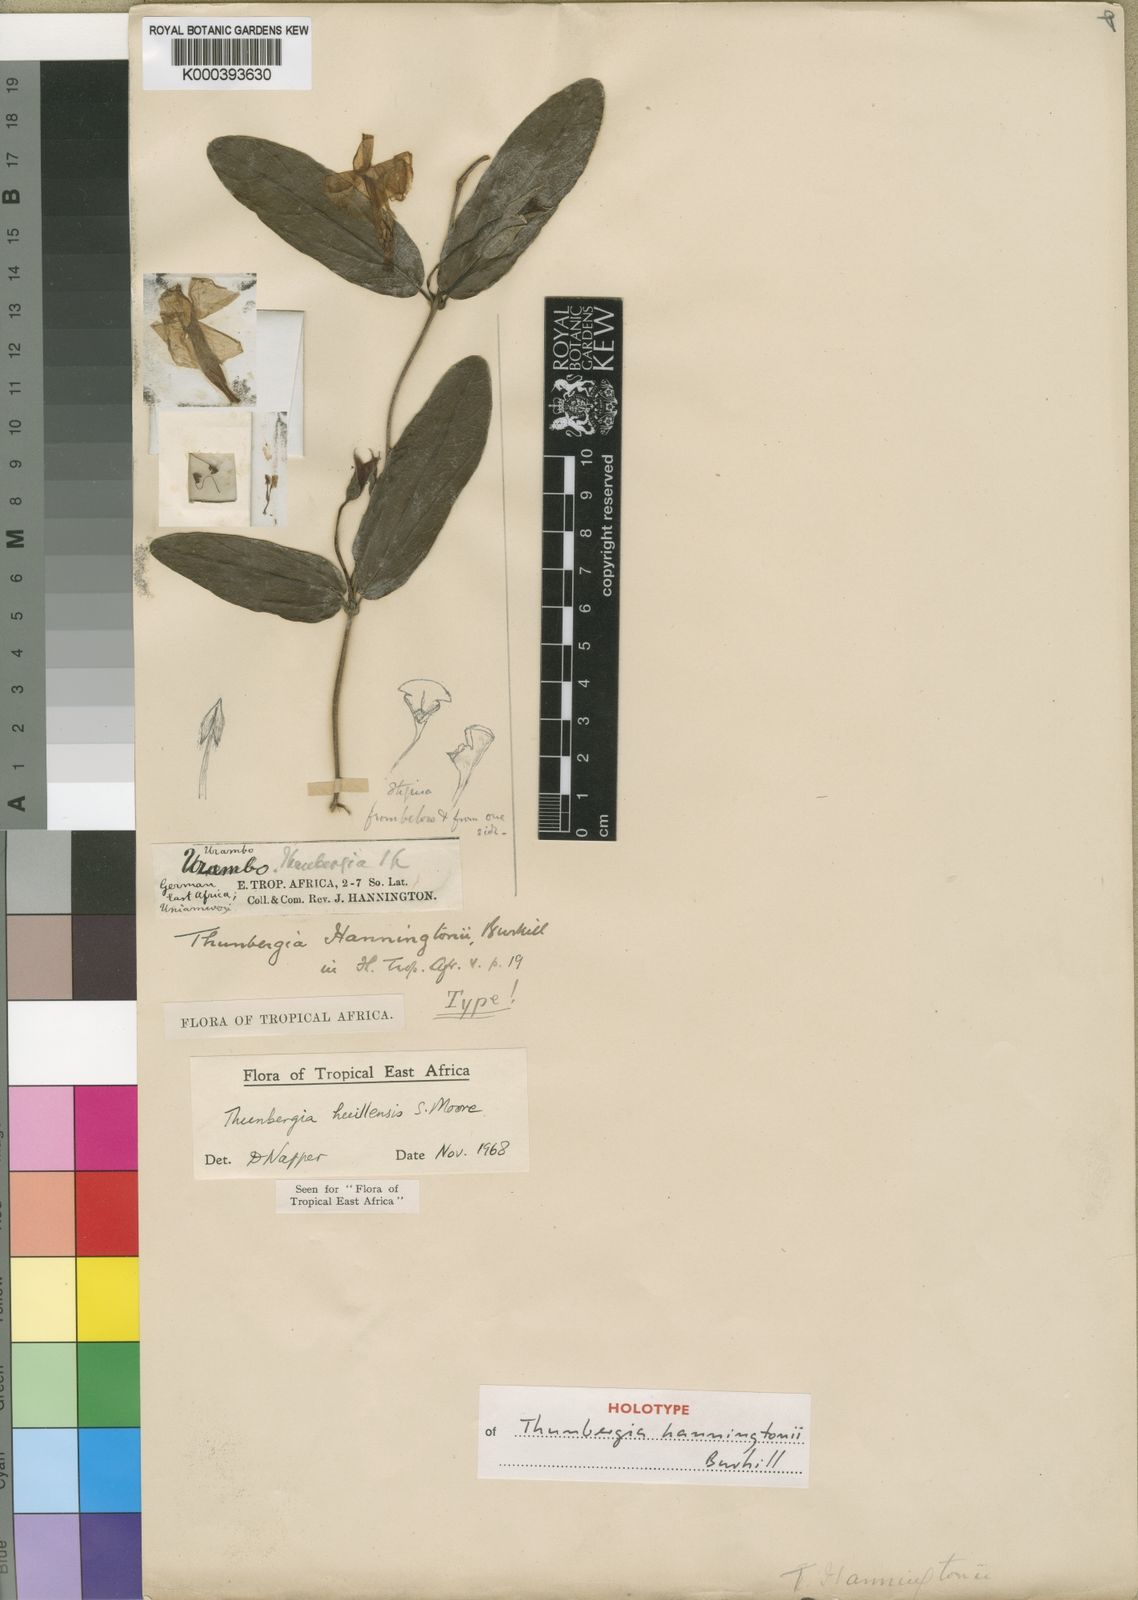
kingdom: Plantae
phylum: Tracheophyta
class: Magnoliopsida
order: Lamiales
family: Acanthaceae
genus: Thunbergia
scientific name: Thunbergia huillensis
